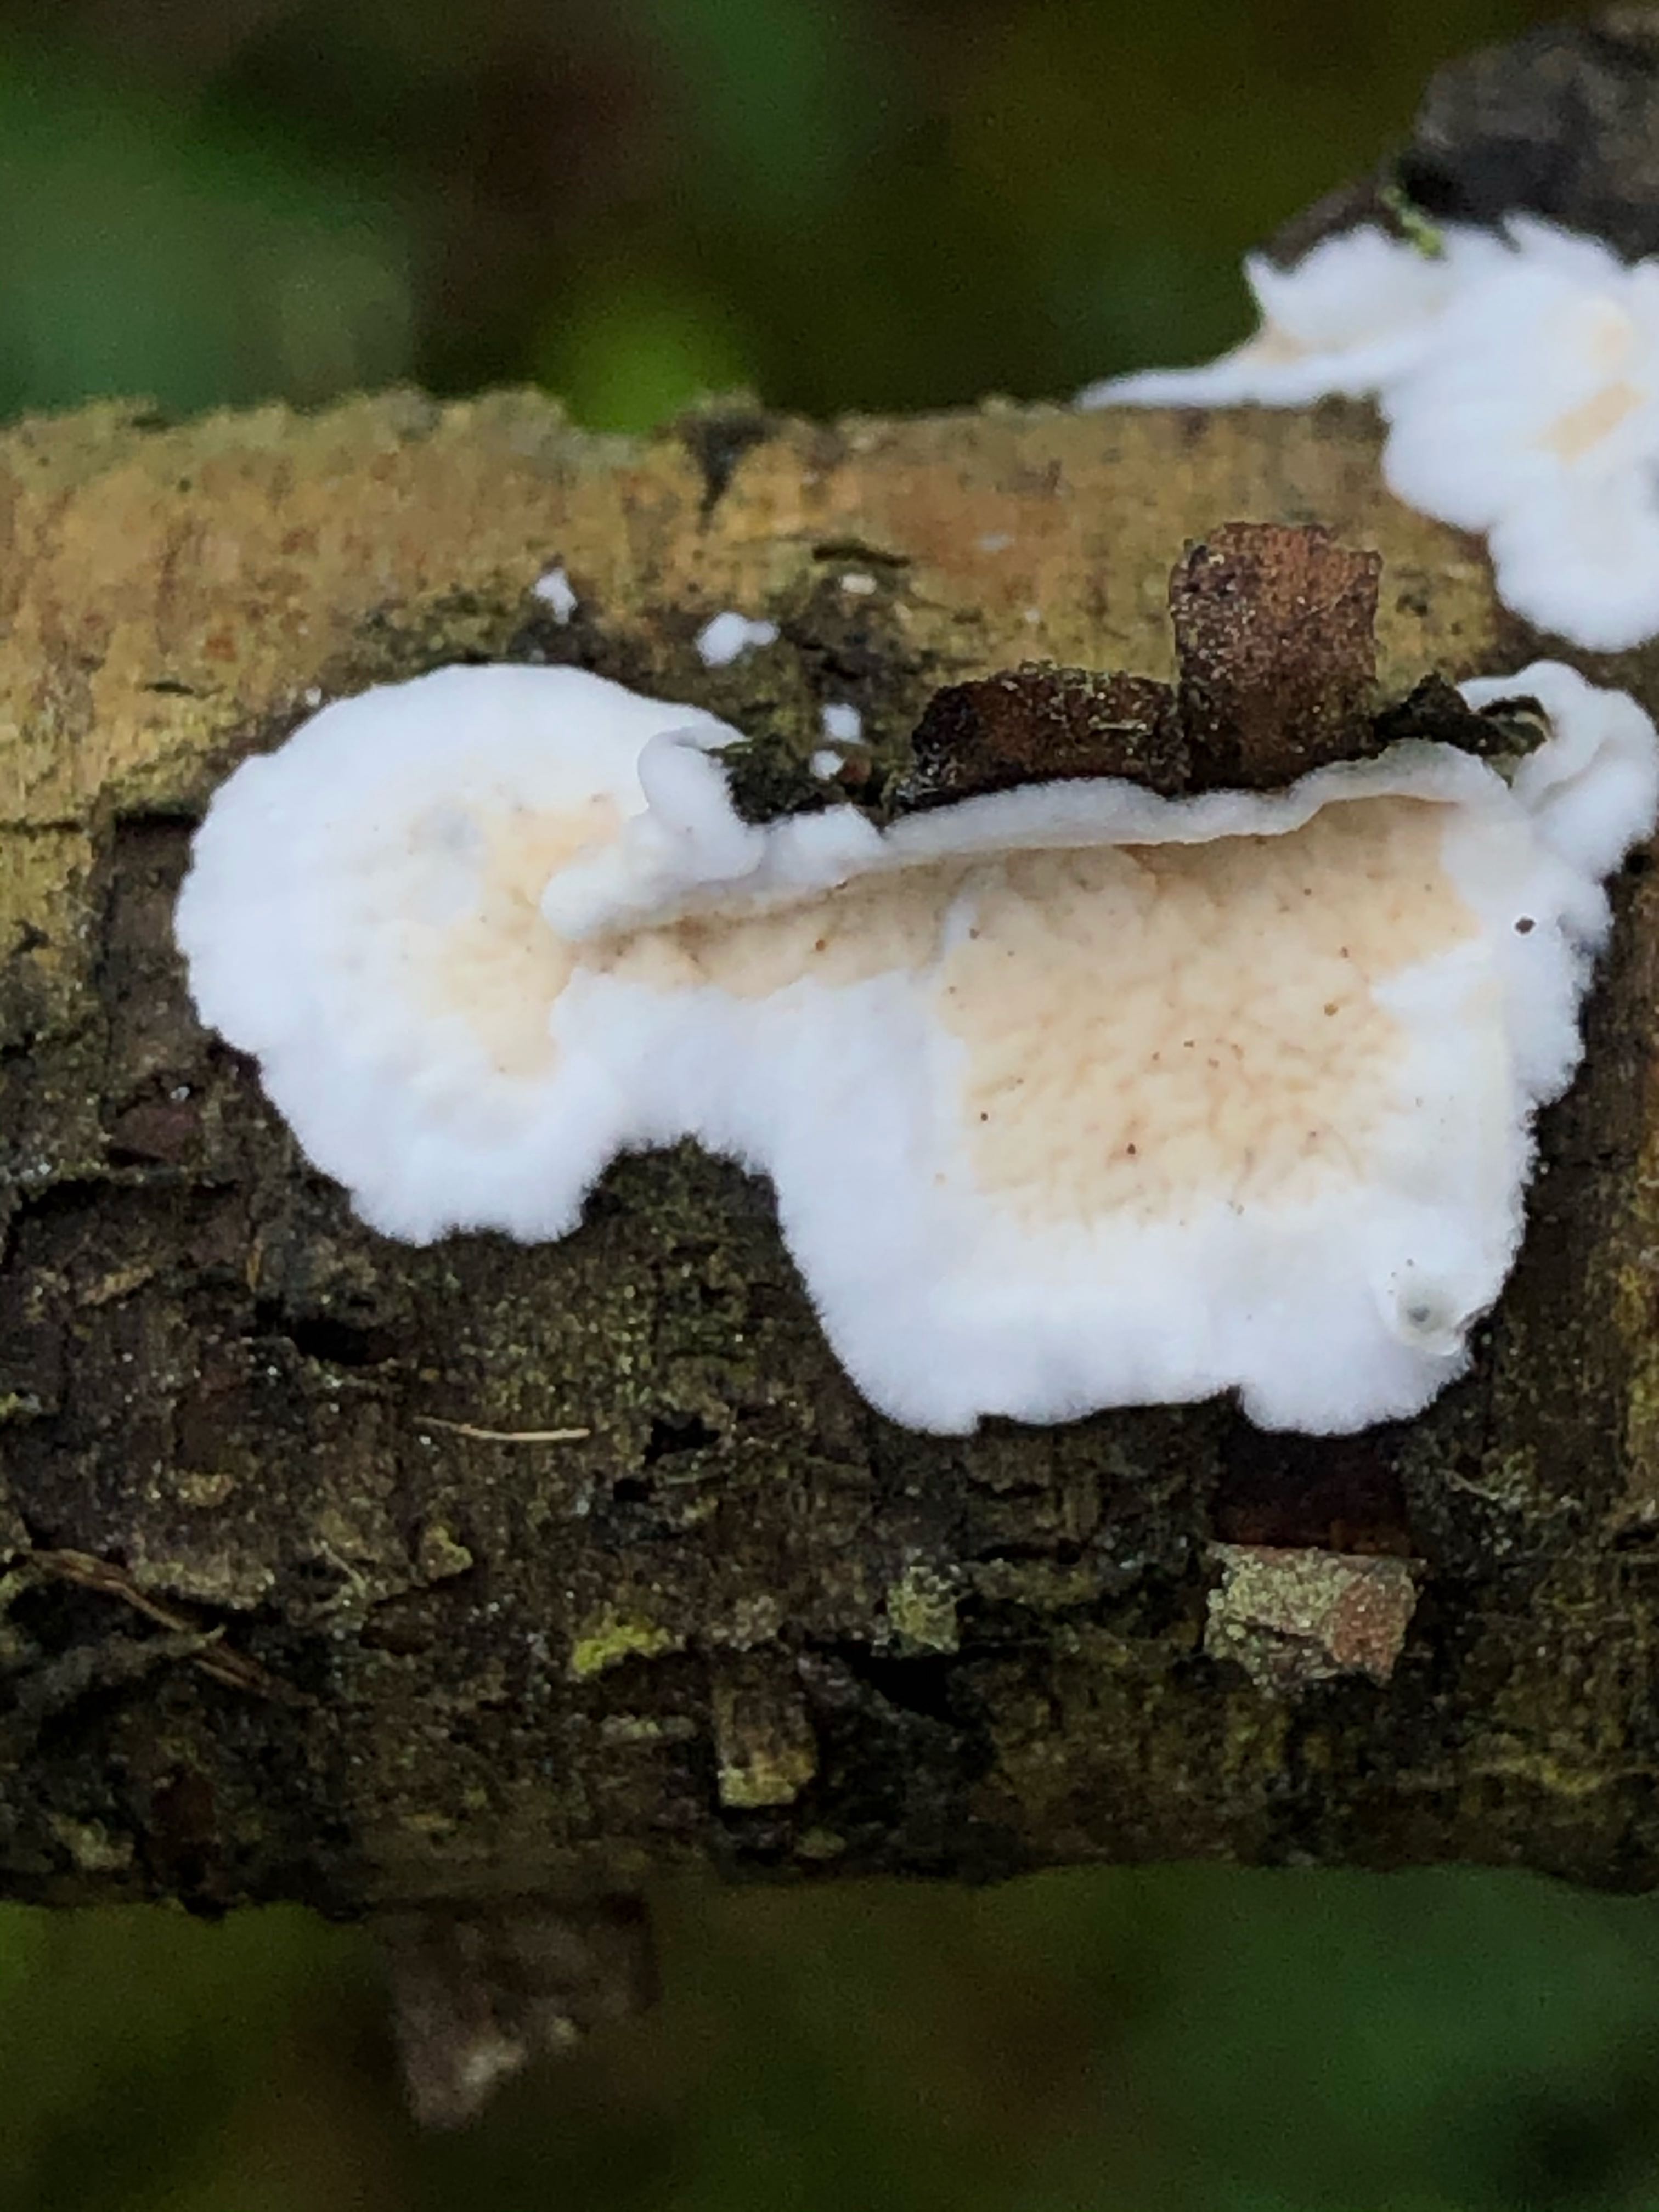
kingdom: Fungi
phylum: Basidiomycota
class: Agaricomycetes
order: Polyporales
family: Irpicaceae
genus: Byssomerulius
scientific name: Byssomerulius corium
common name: læder-åresvamp
